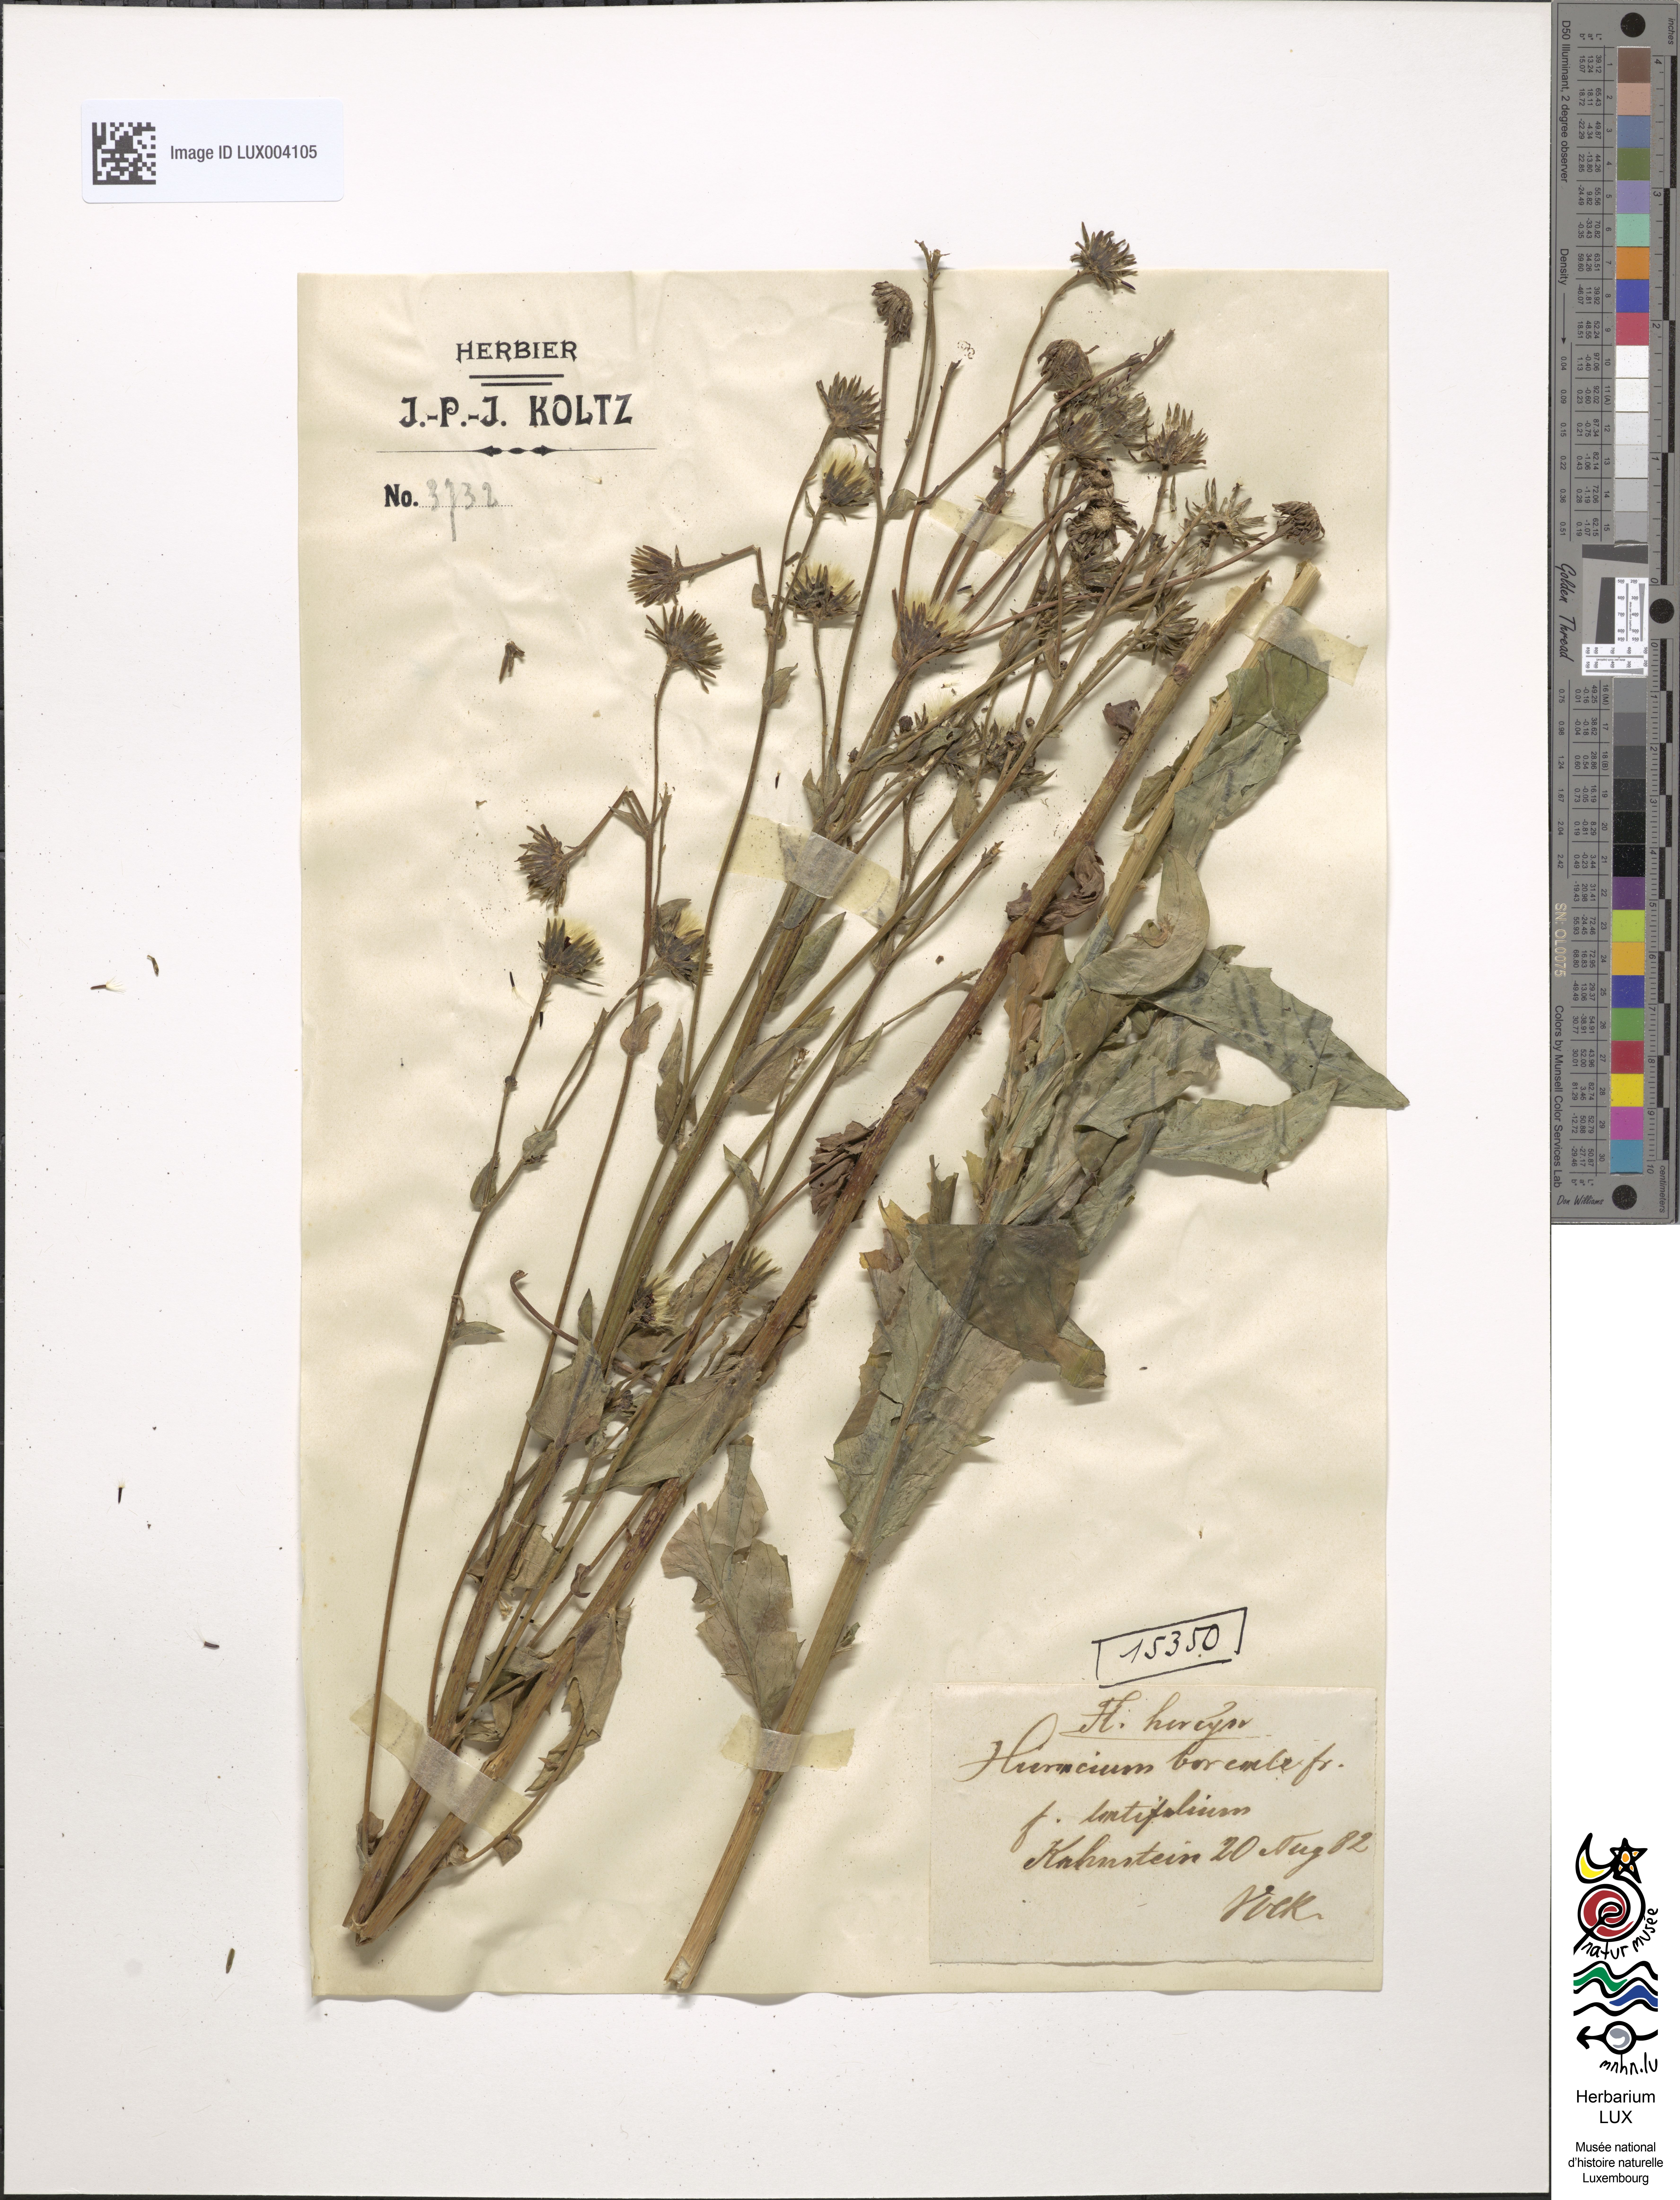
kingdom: Plantae
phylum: Tracheophyta
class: Magnoliopsida
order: Asterales
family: Asteraceae
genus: Hieracium
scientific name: Hieracium sabaudum
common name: New england hawkweed
